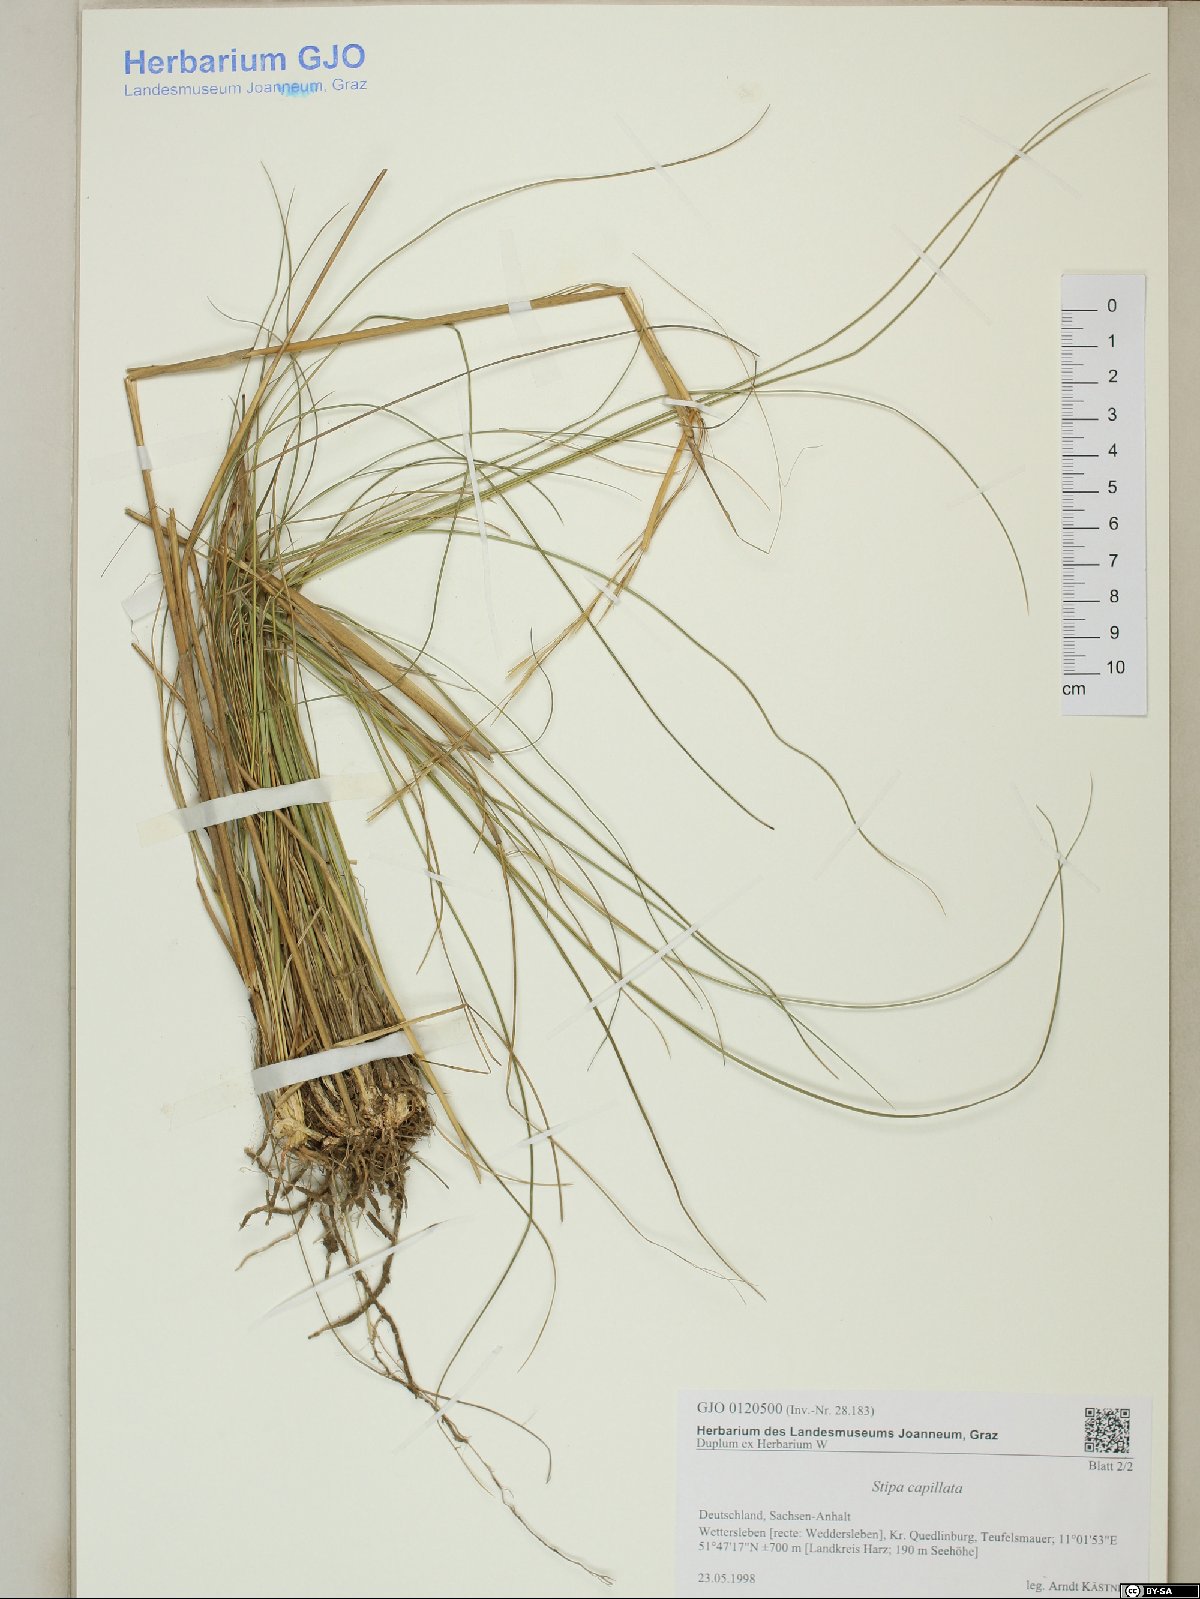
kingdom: Plantae
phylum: Tracheophyta
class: Liliopsida
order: Poales
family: Poaceae
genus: Stipa
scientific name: Stipa capillata
